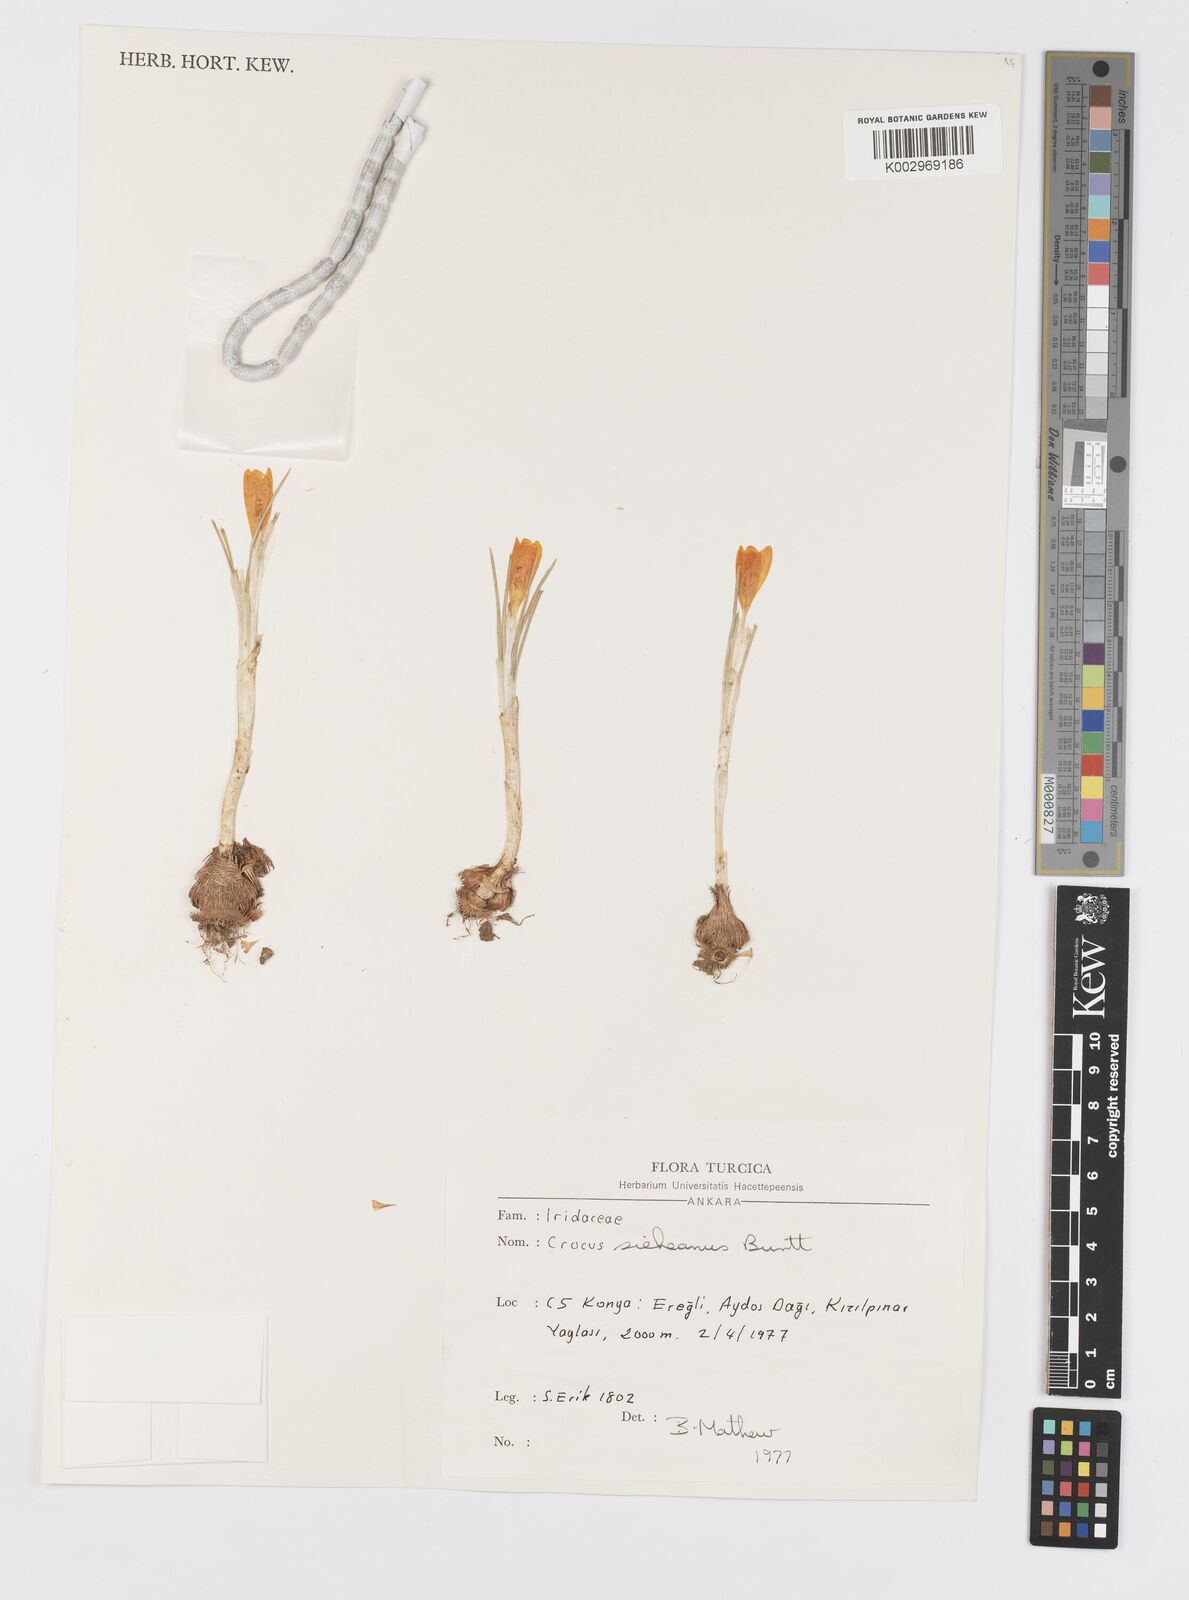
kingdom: Plantae
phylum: Tracheophyta
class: Liliopsida
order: Asparagales
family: Iridaceae
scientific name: Iridaceae
